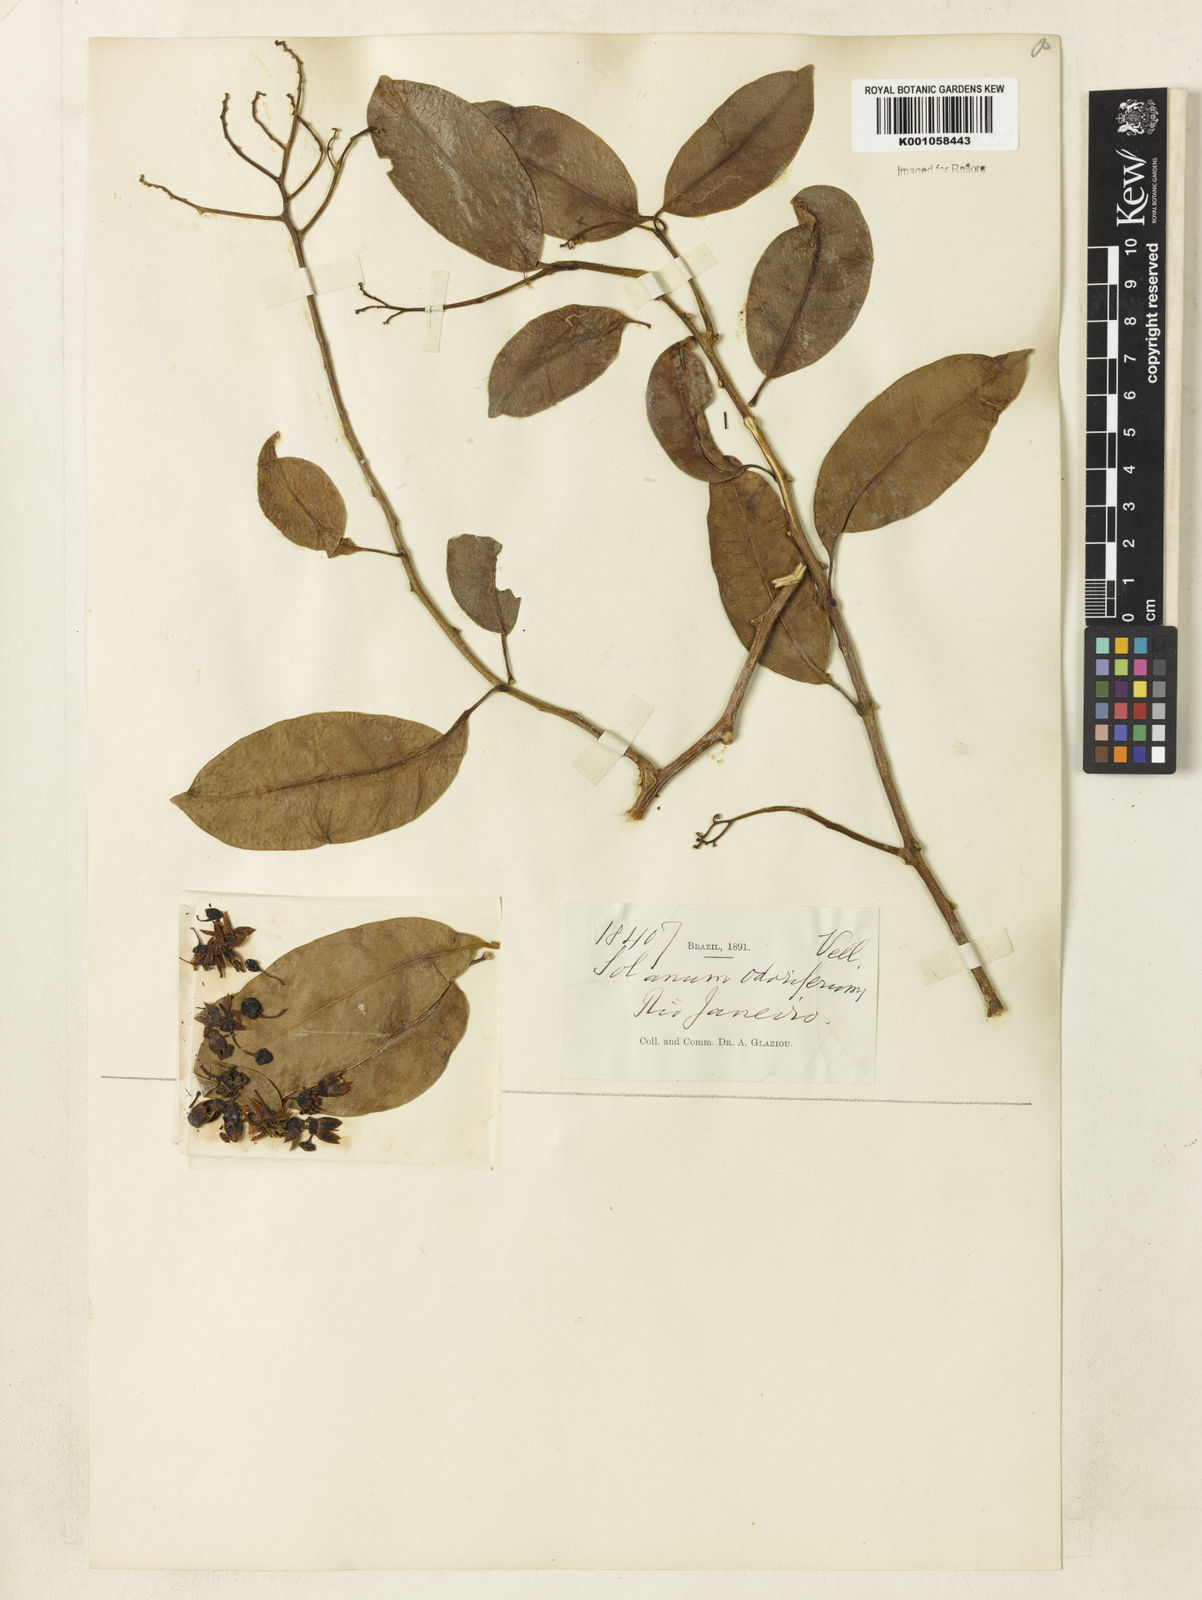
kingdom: Plantae
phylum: Tracheophyta
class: Magnoliopsida
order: Solanales
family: Solanaceae
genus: Solanum
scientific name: Solanum odoriferum
